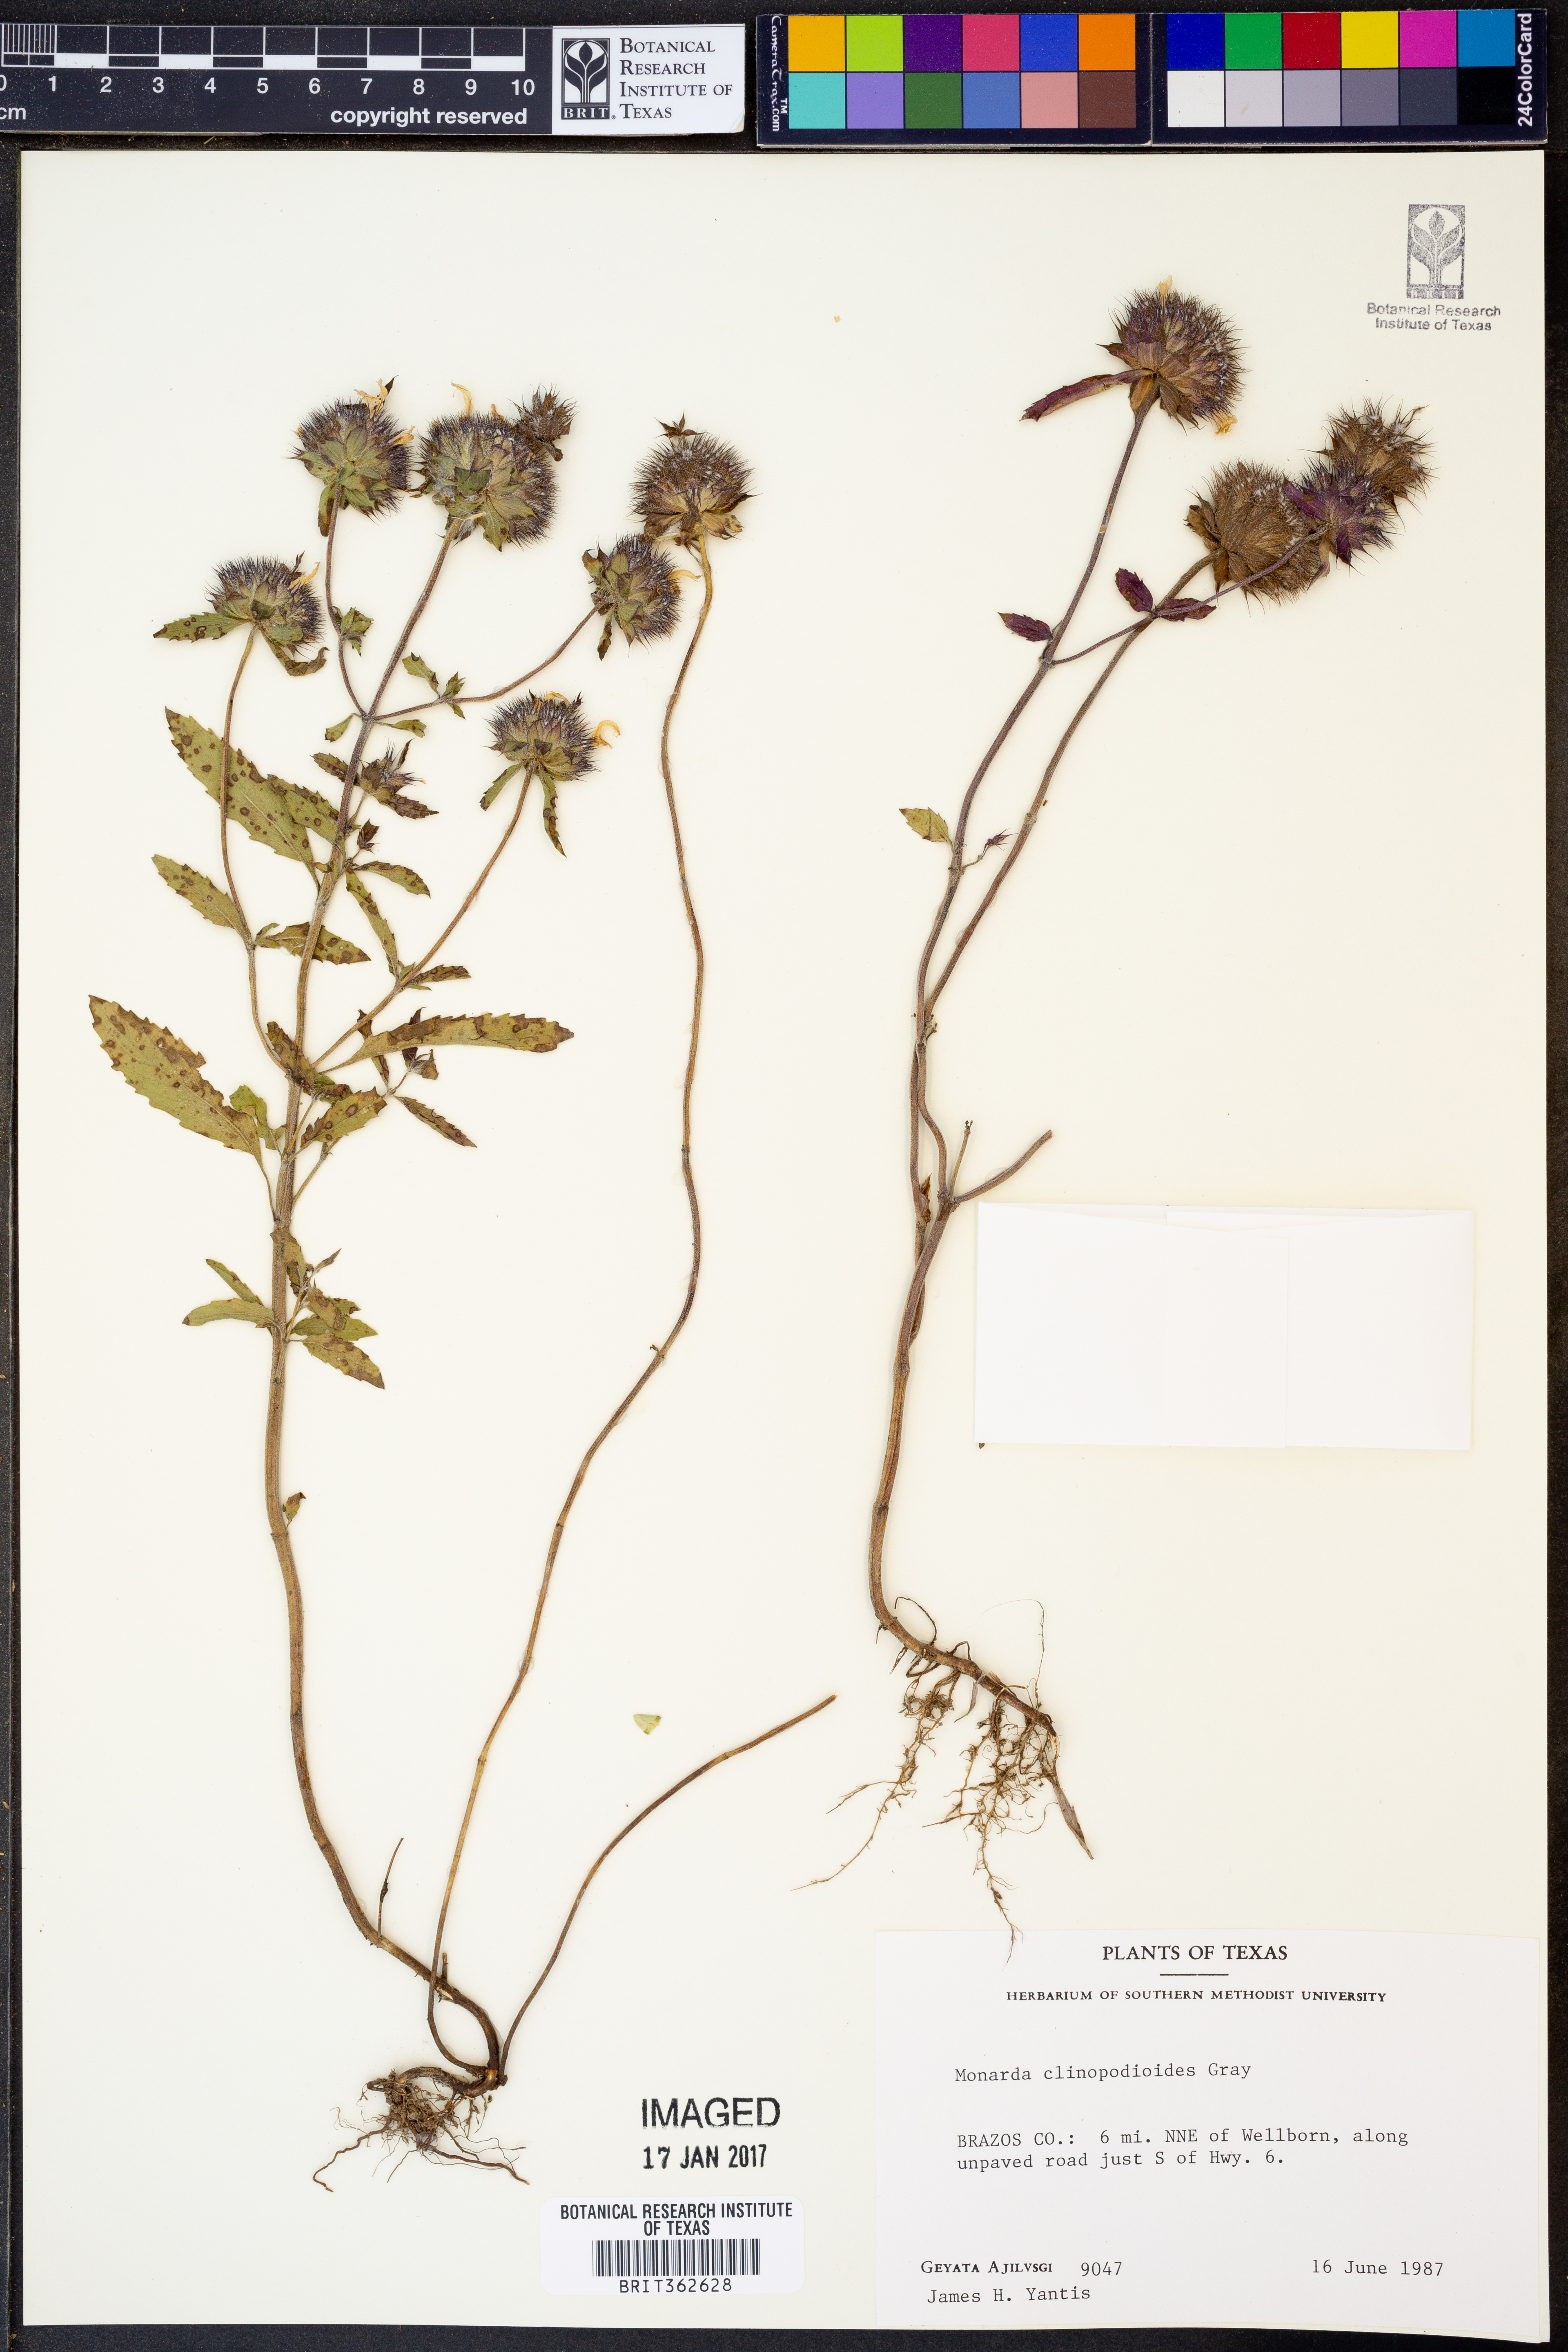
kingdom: Plantae
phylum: Tracheophyta
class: Magnoliopsida
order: Lamiales
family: Lamiaceae
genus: Monarda
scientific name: Monarda clinopodioides
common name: Basil beebalm
